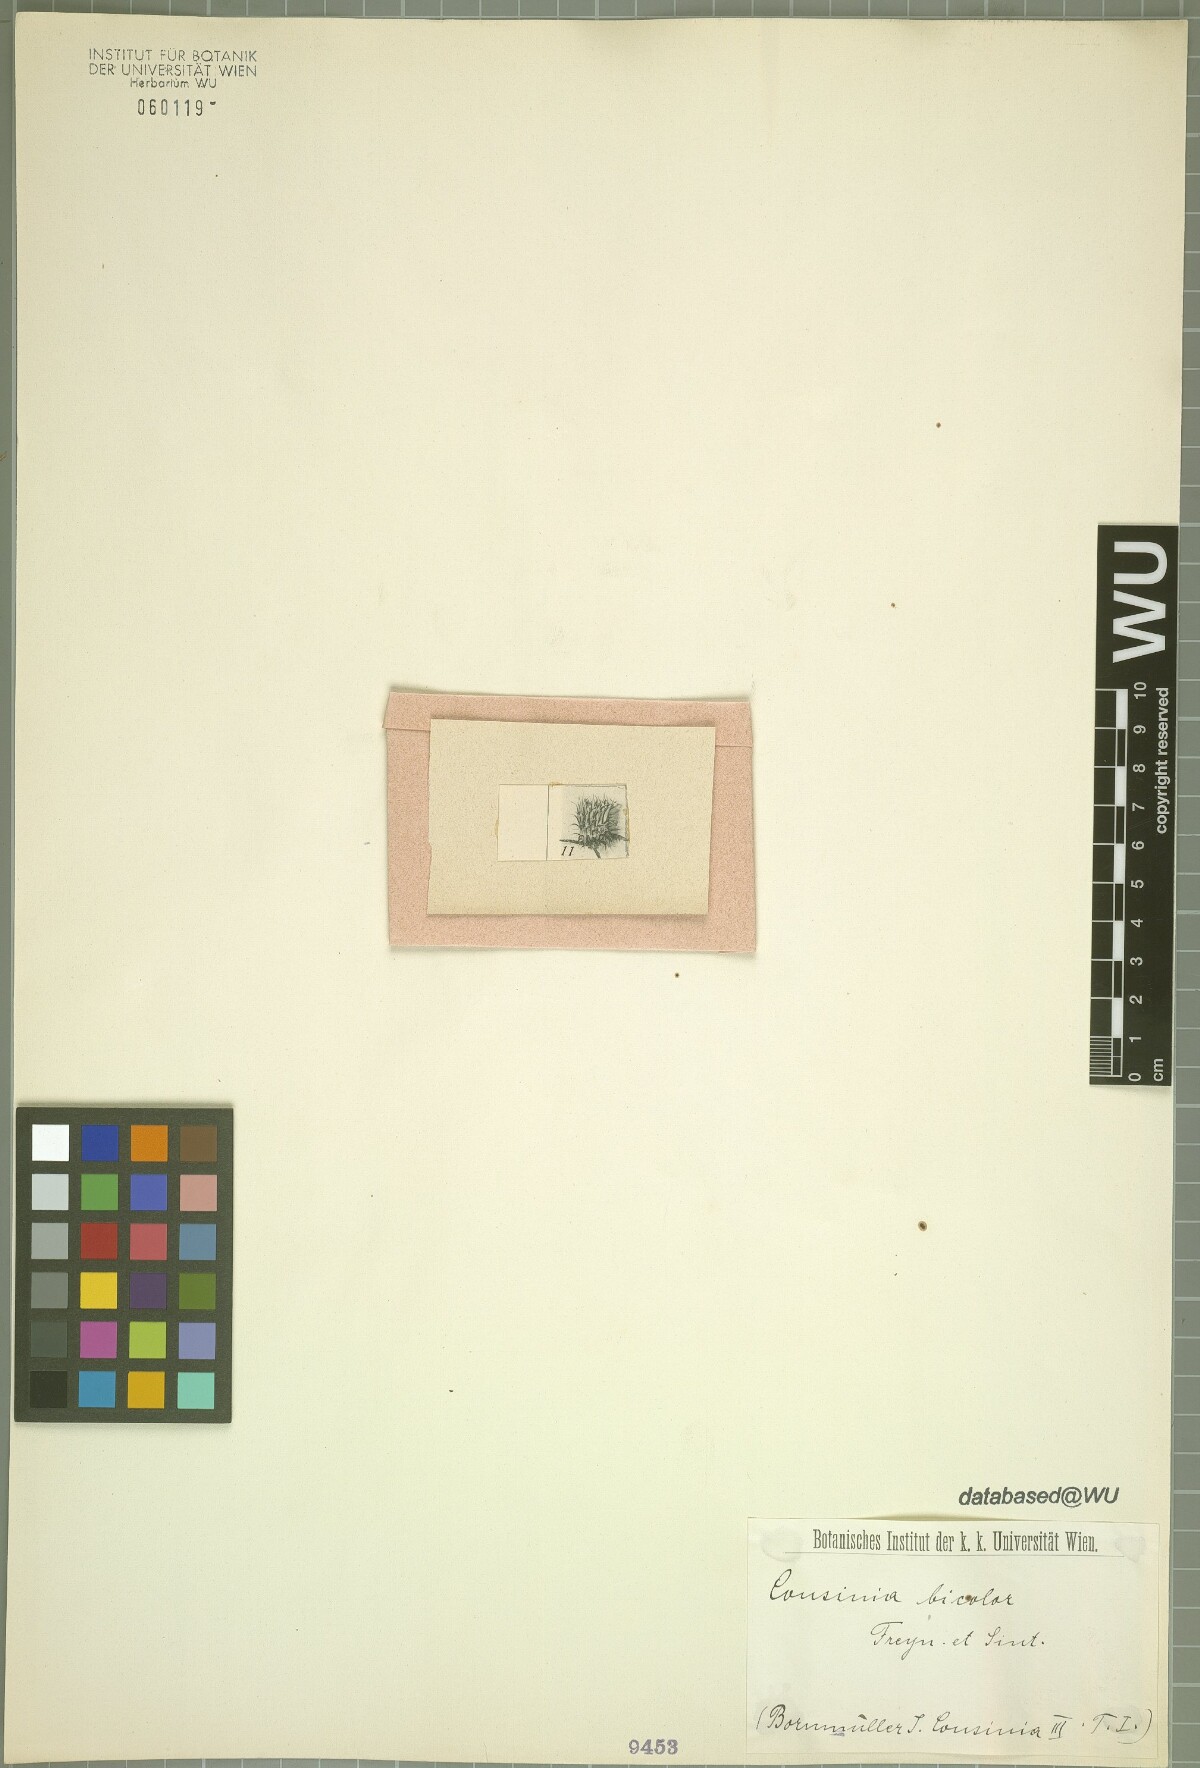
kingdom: Plantae
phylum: Tracheophyta
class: Magnoliopsida
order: Asterales
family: Asteraceae
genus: Cousinia
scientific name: Cousinia bicolor
